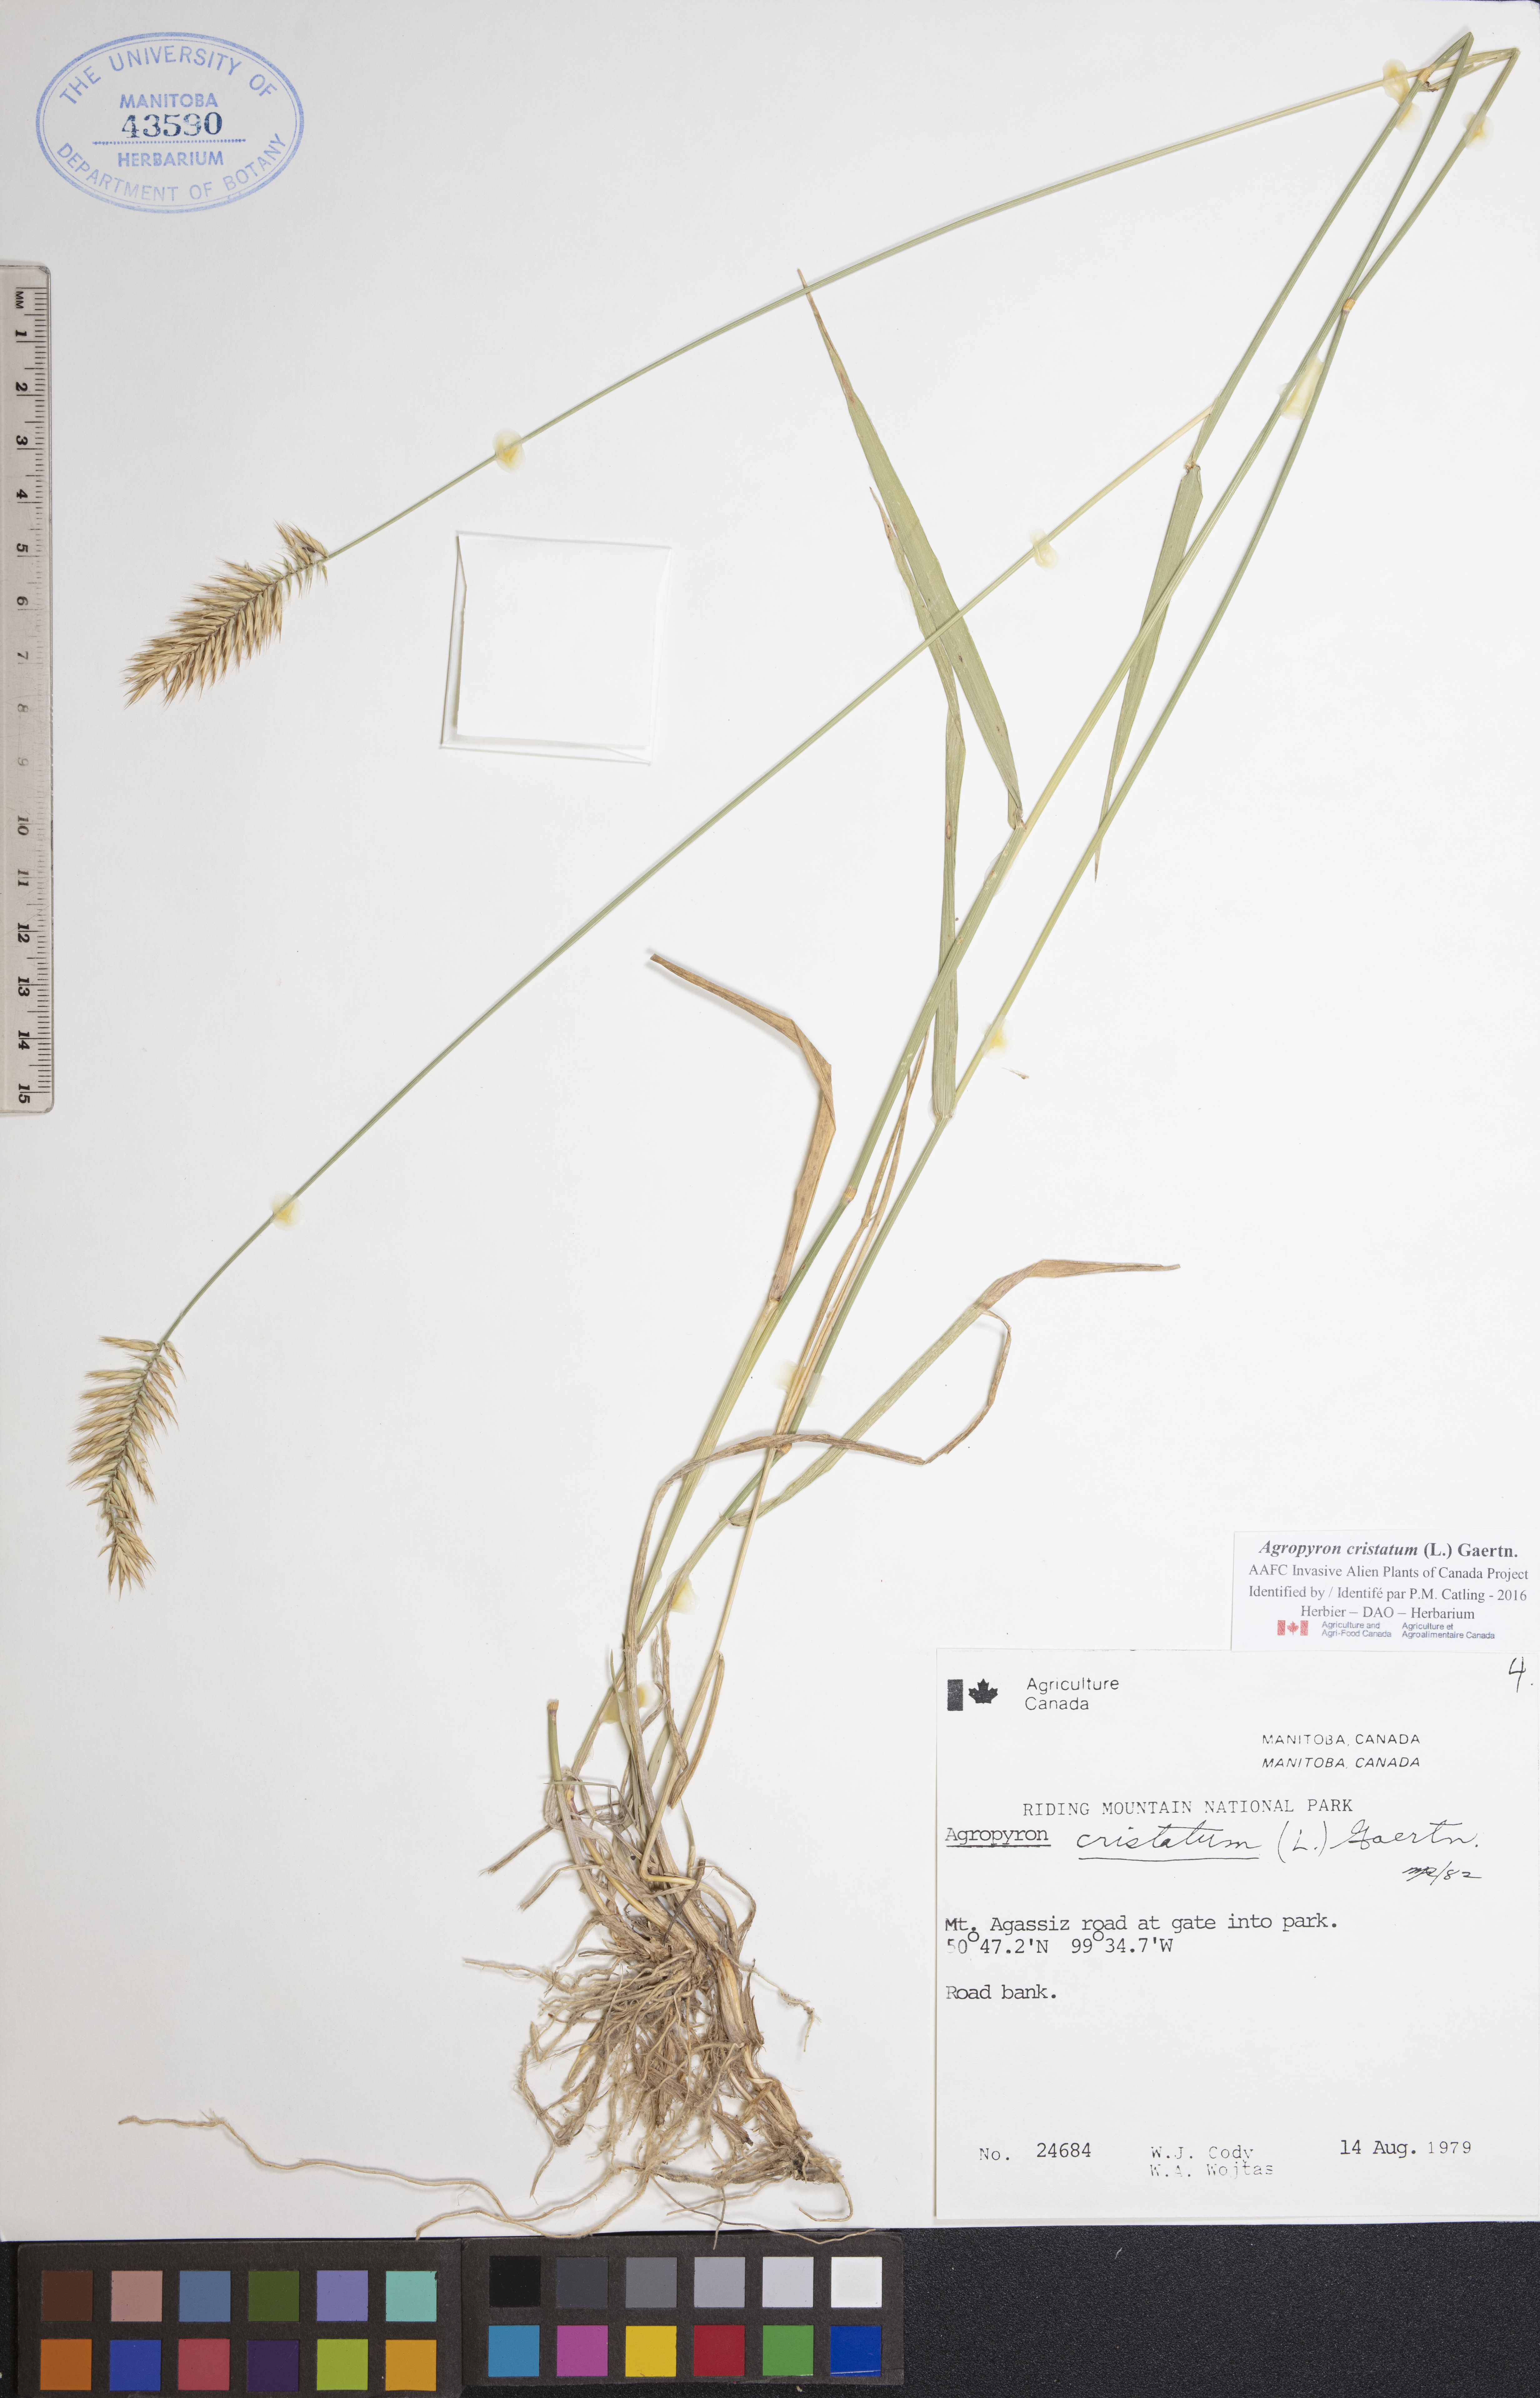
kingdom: Plantae
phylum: Tracheophyta
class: Liliopsida
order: Poales
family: Poaceae
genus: Agropyron
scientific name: Agropyron cristatum
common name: Crested wheatgrass
